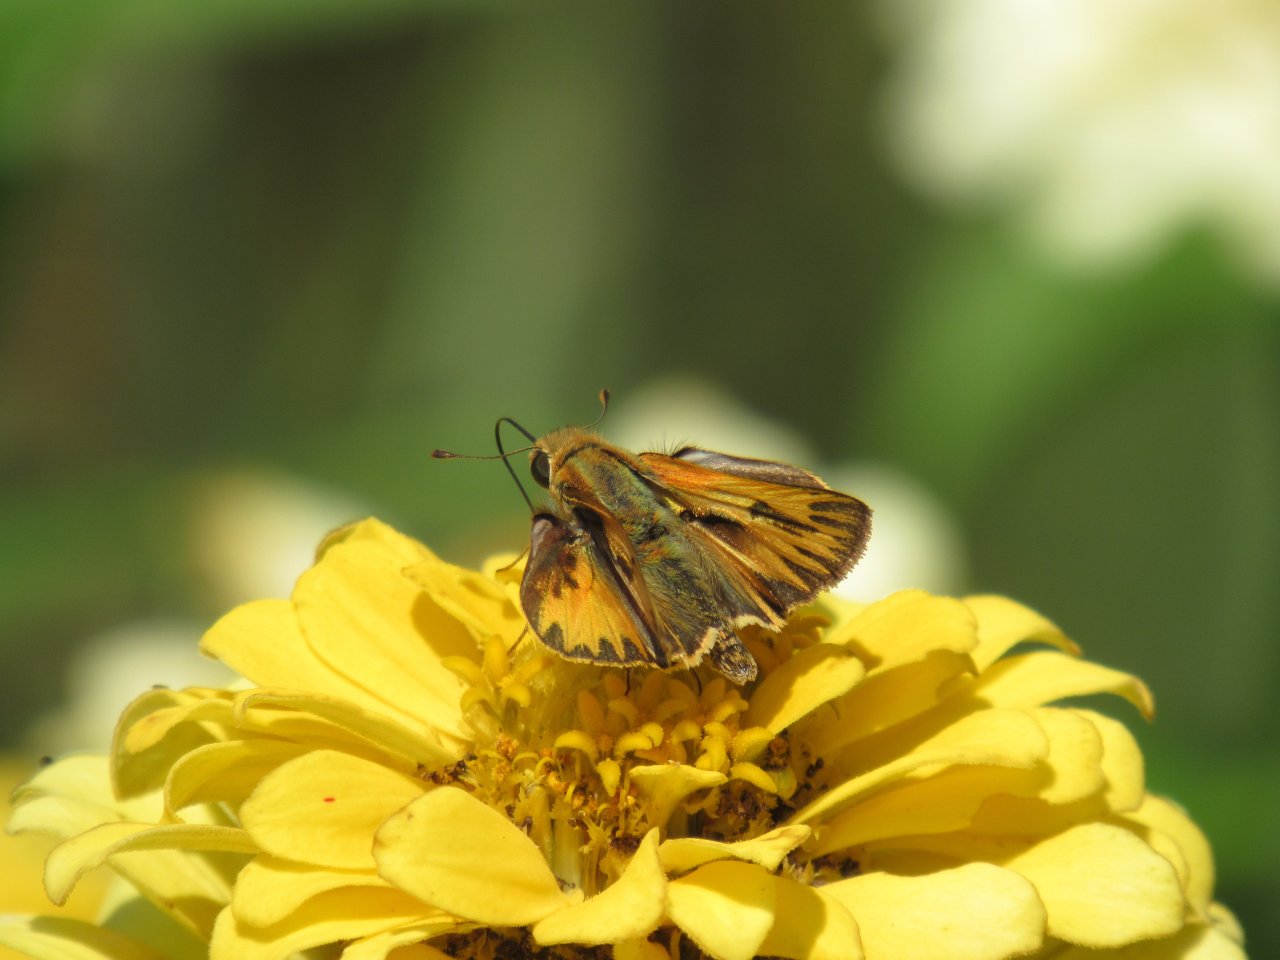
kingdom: Animalia
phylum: Arthropoda
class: Insecta
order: Lepidoptera
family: Hesperiidae
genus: Hylephila
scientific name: Hylephila phyleus
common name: Fiery Skipper
